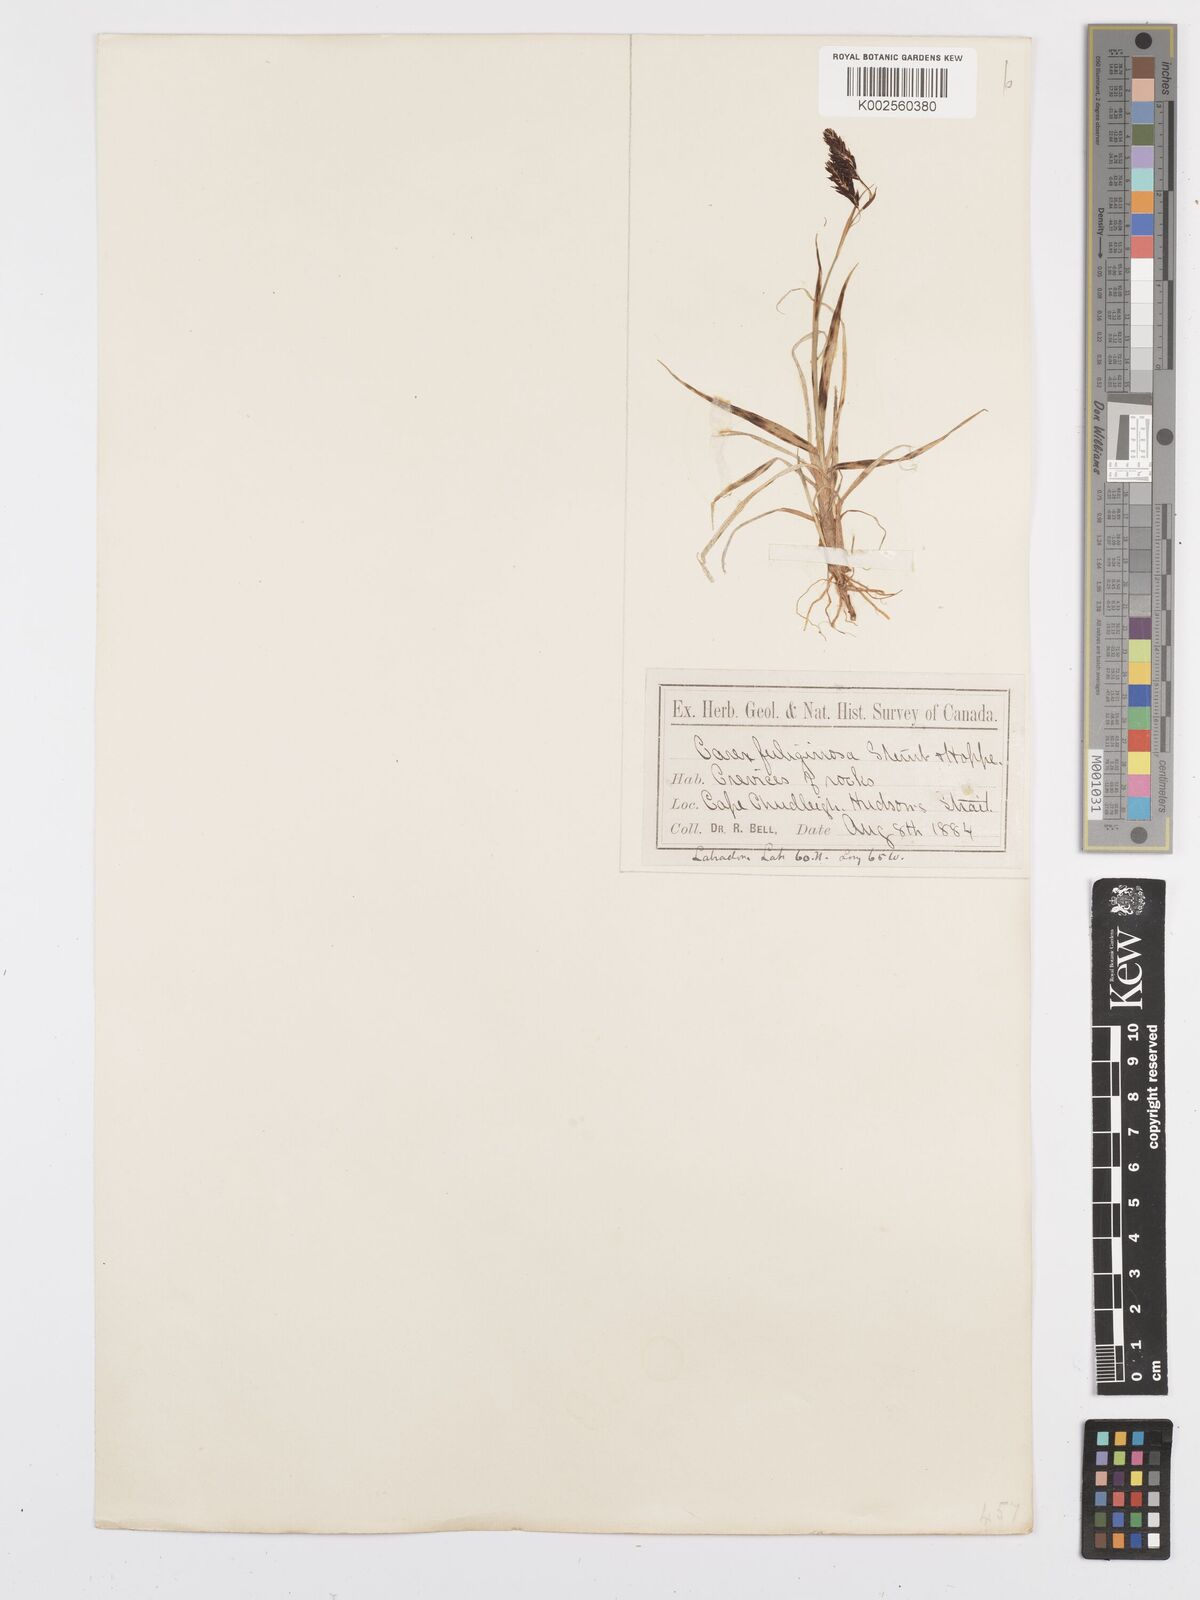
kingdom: Plantae
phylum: Tracheophyta
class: Liliopsida
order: Poales
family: Cyperaceae
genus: Carex
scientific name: Carex fuliginosa
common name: Few-flowered sedge
